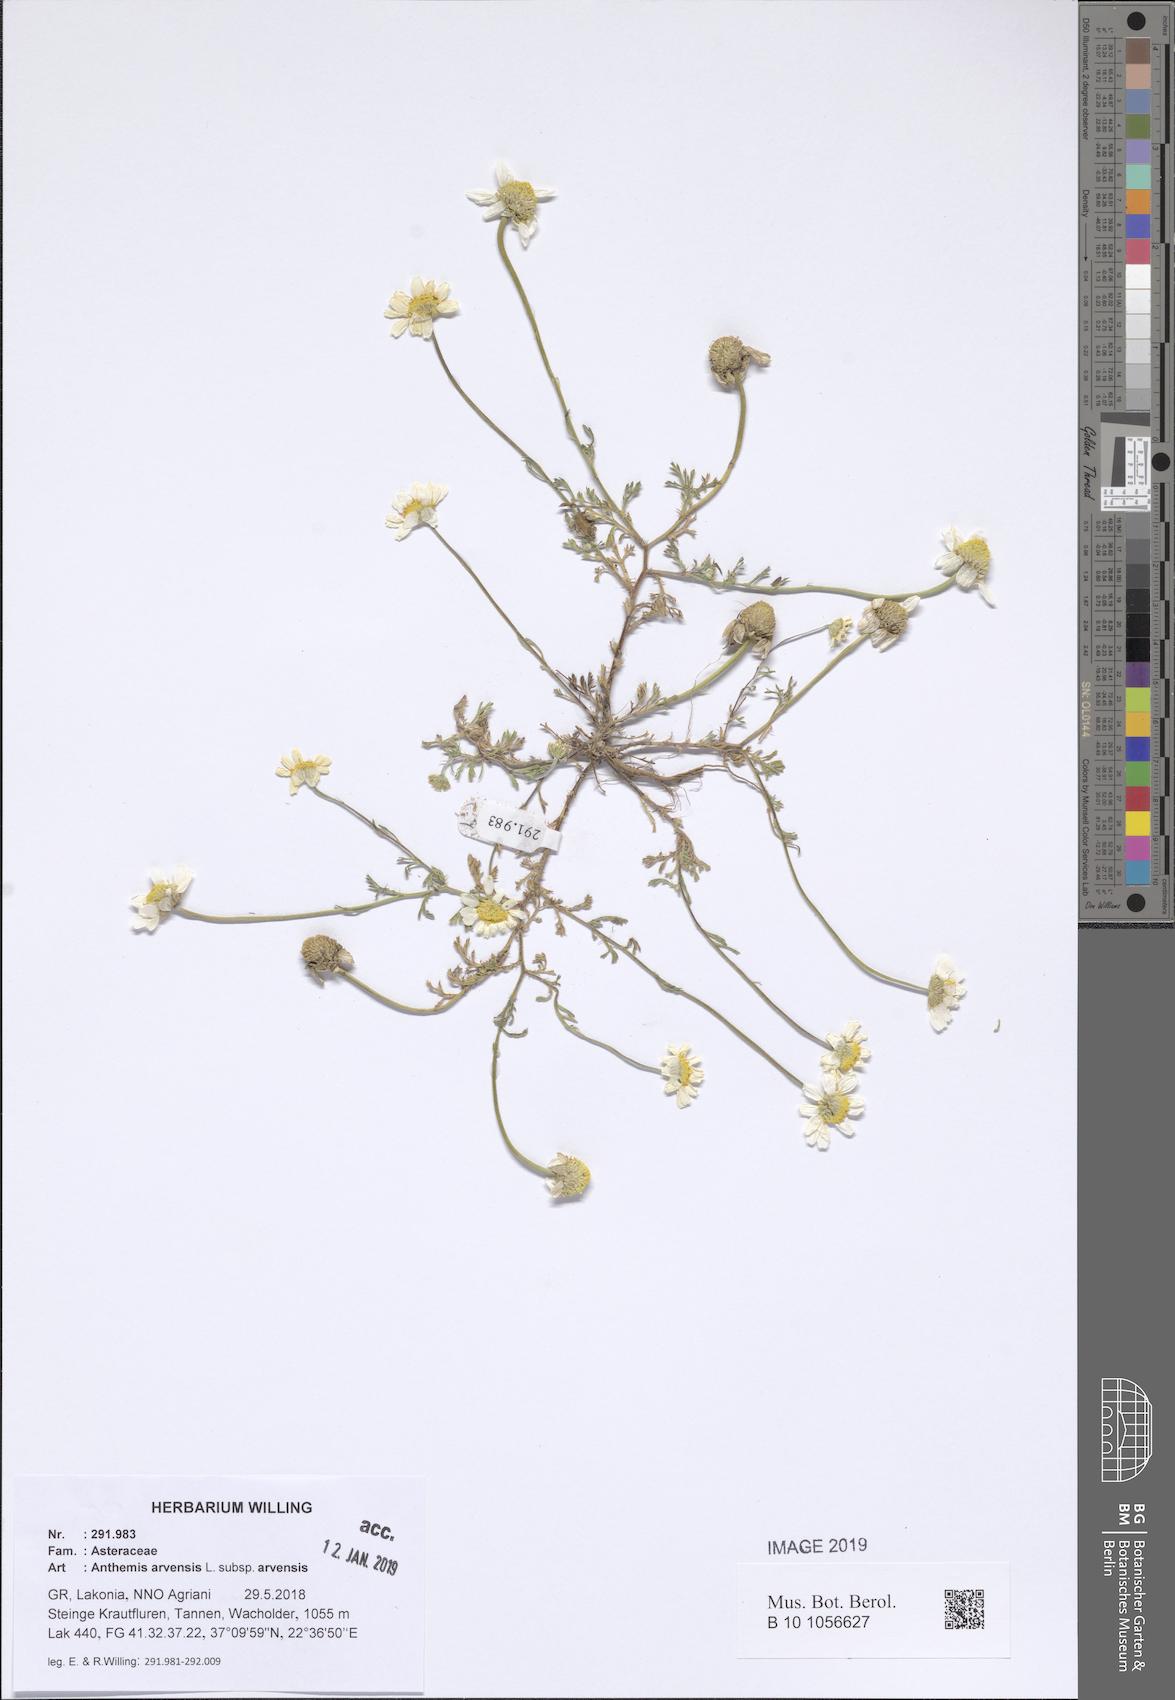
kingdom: Plantae
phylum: Tracheophyta
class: Magnoliopsida
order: Asterales
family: Asteraceae
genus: Anthemis
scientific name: Anthemis arvensis
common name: Corn chamomile
